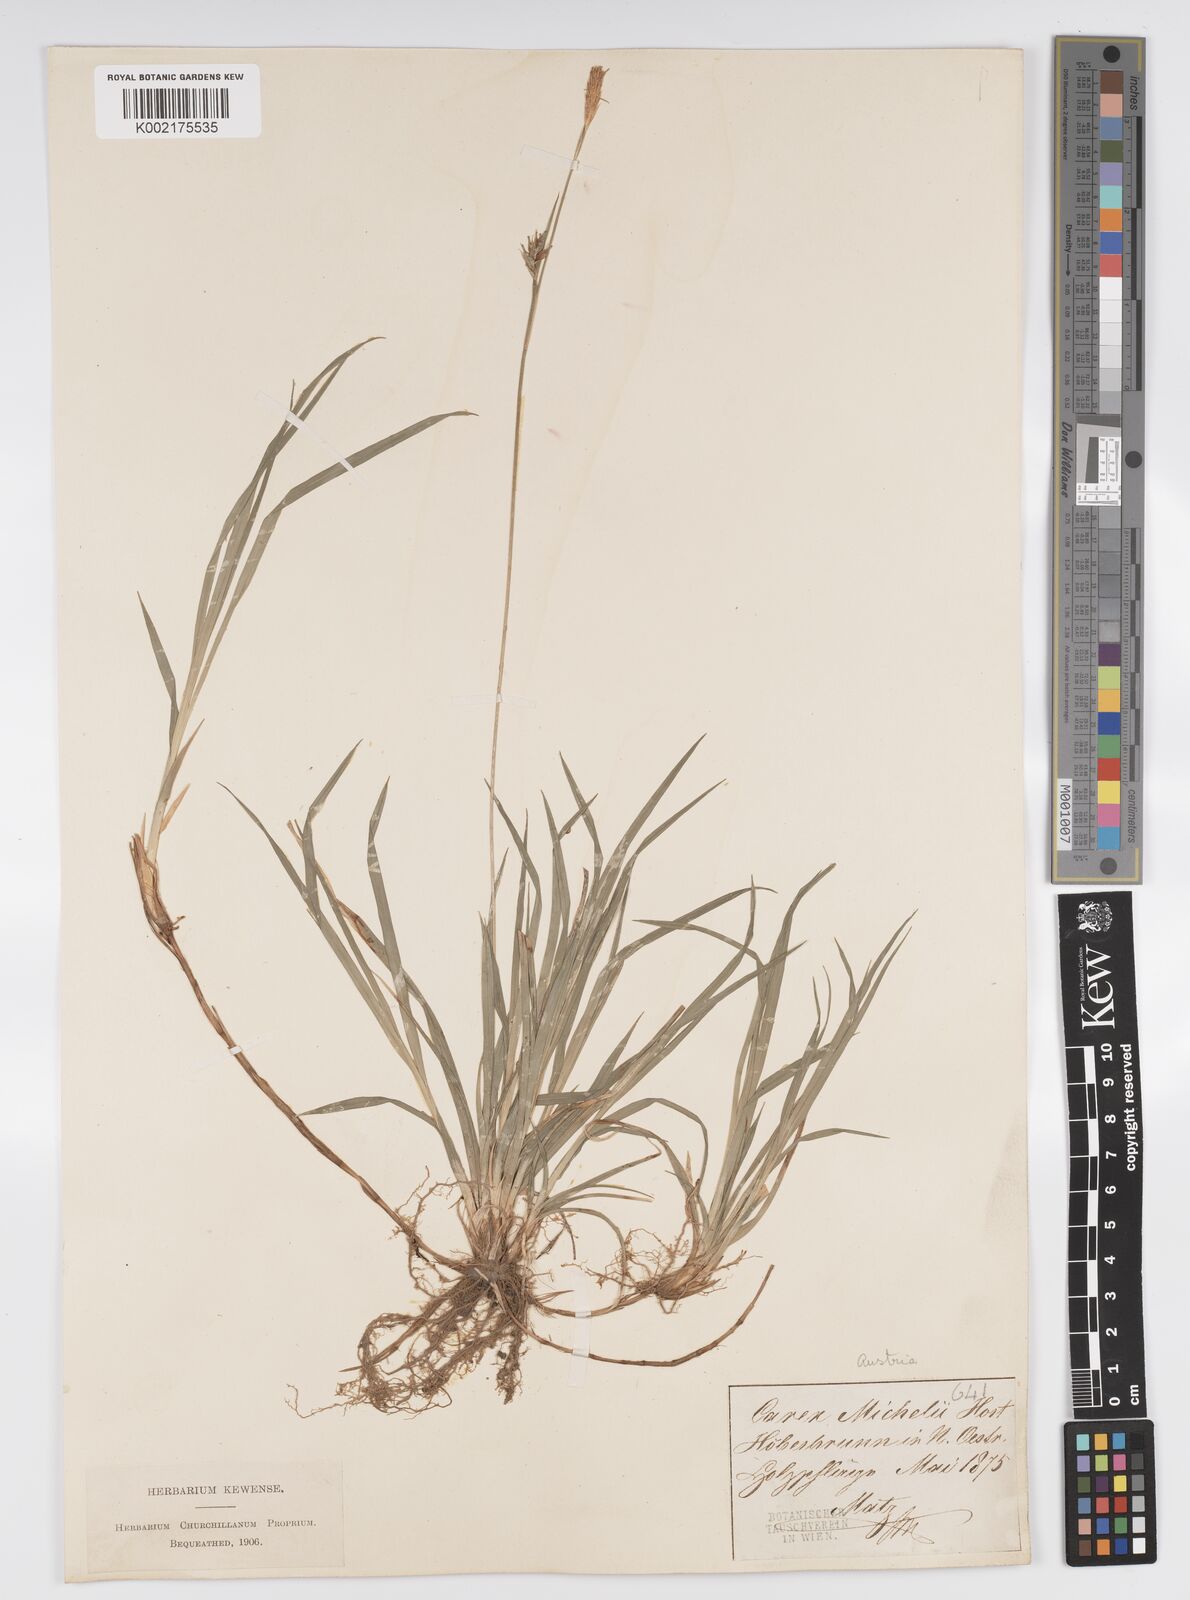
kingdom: Plantae
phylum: Tracheophyta
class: Liliopsida
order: Poales
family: Cyperaceae
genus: Carex
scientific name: Carex michelii
